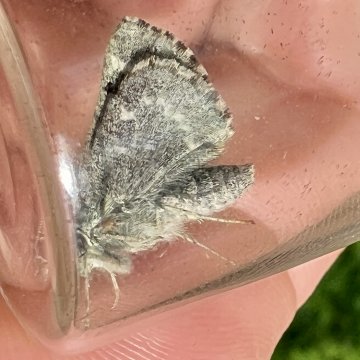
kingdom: Animalia
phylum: Arthropoda
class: Insecta
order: Lepidoptera
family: Hesperiidae
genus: Mastor
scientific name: Mastor hegon
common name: Pepper and Salt Skipper
